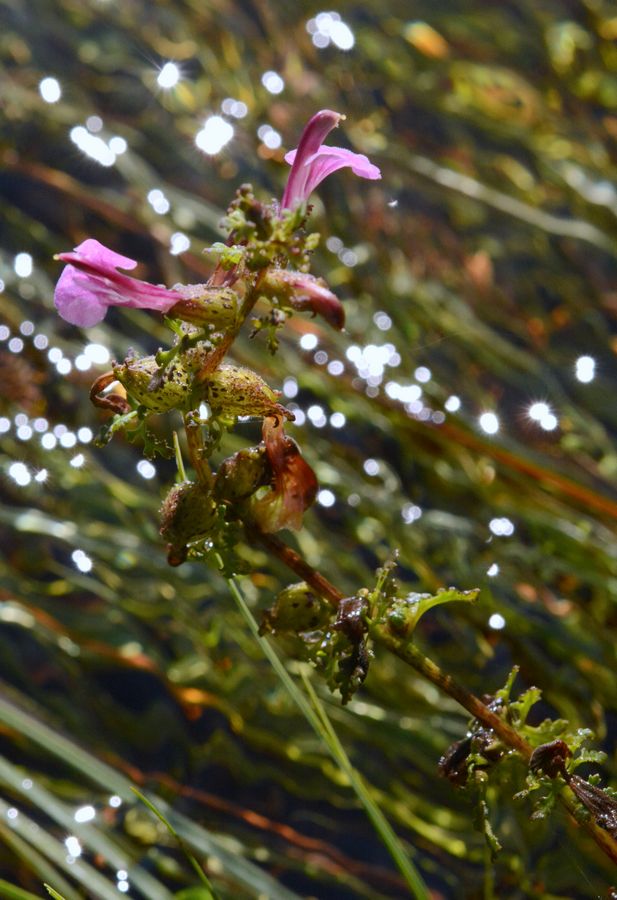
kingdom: Plantae
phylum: Tracheophyta
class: Magnoliopsida
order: Lamiales
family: Orobanchaceae
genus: Pedicularis
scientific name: Pedicularis palustris
